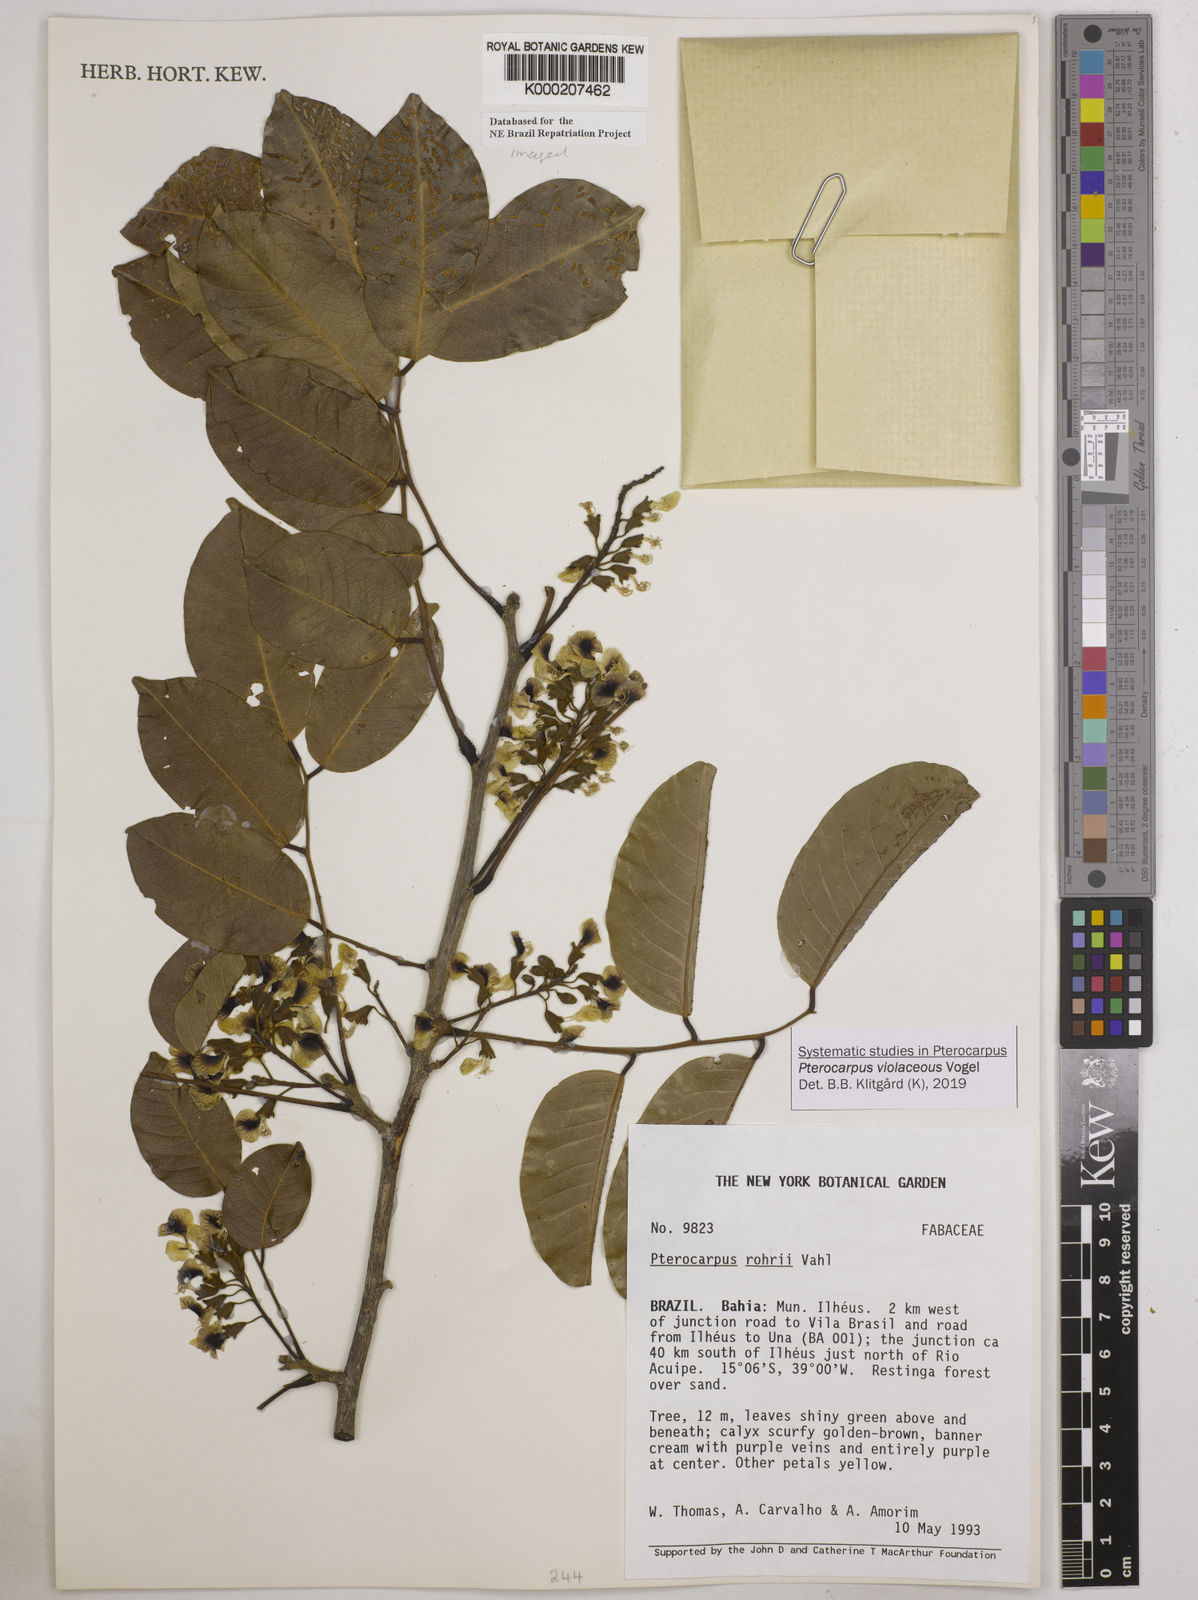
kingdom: Plantae
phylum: Tracheophyta
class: Magnoliopsida
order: Fabales
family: Fabaceae
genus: Pterocarpus
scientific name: Pterocarpus rohrii
